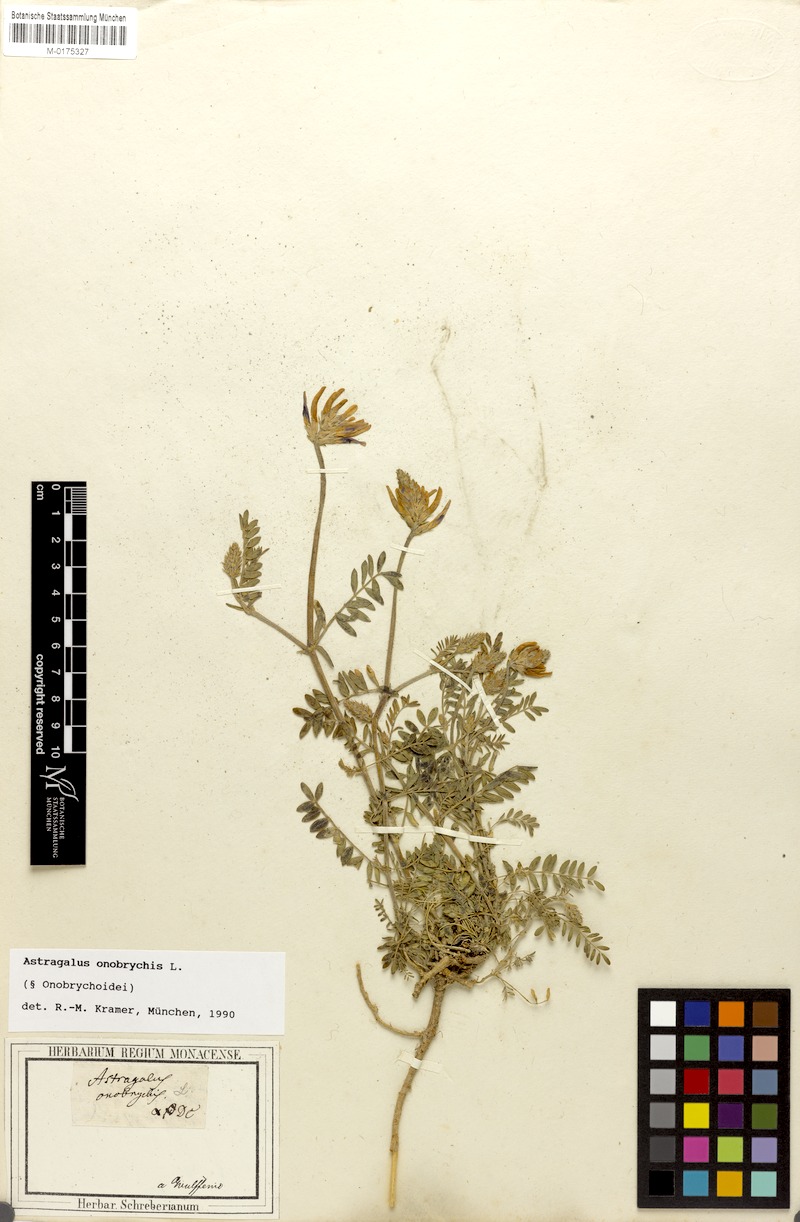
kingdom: Plantae
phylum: Tracheophyta
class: Magnoliopsida
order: Fabales
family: Fabaceae
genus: Astragalus
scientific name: Astragalus onobrychis
